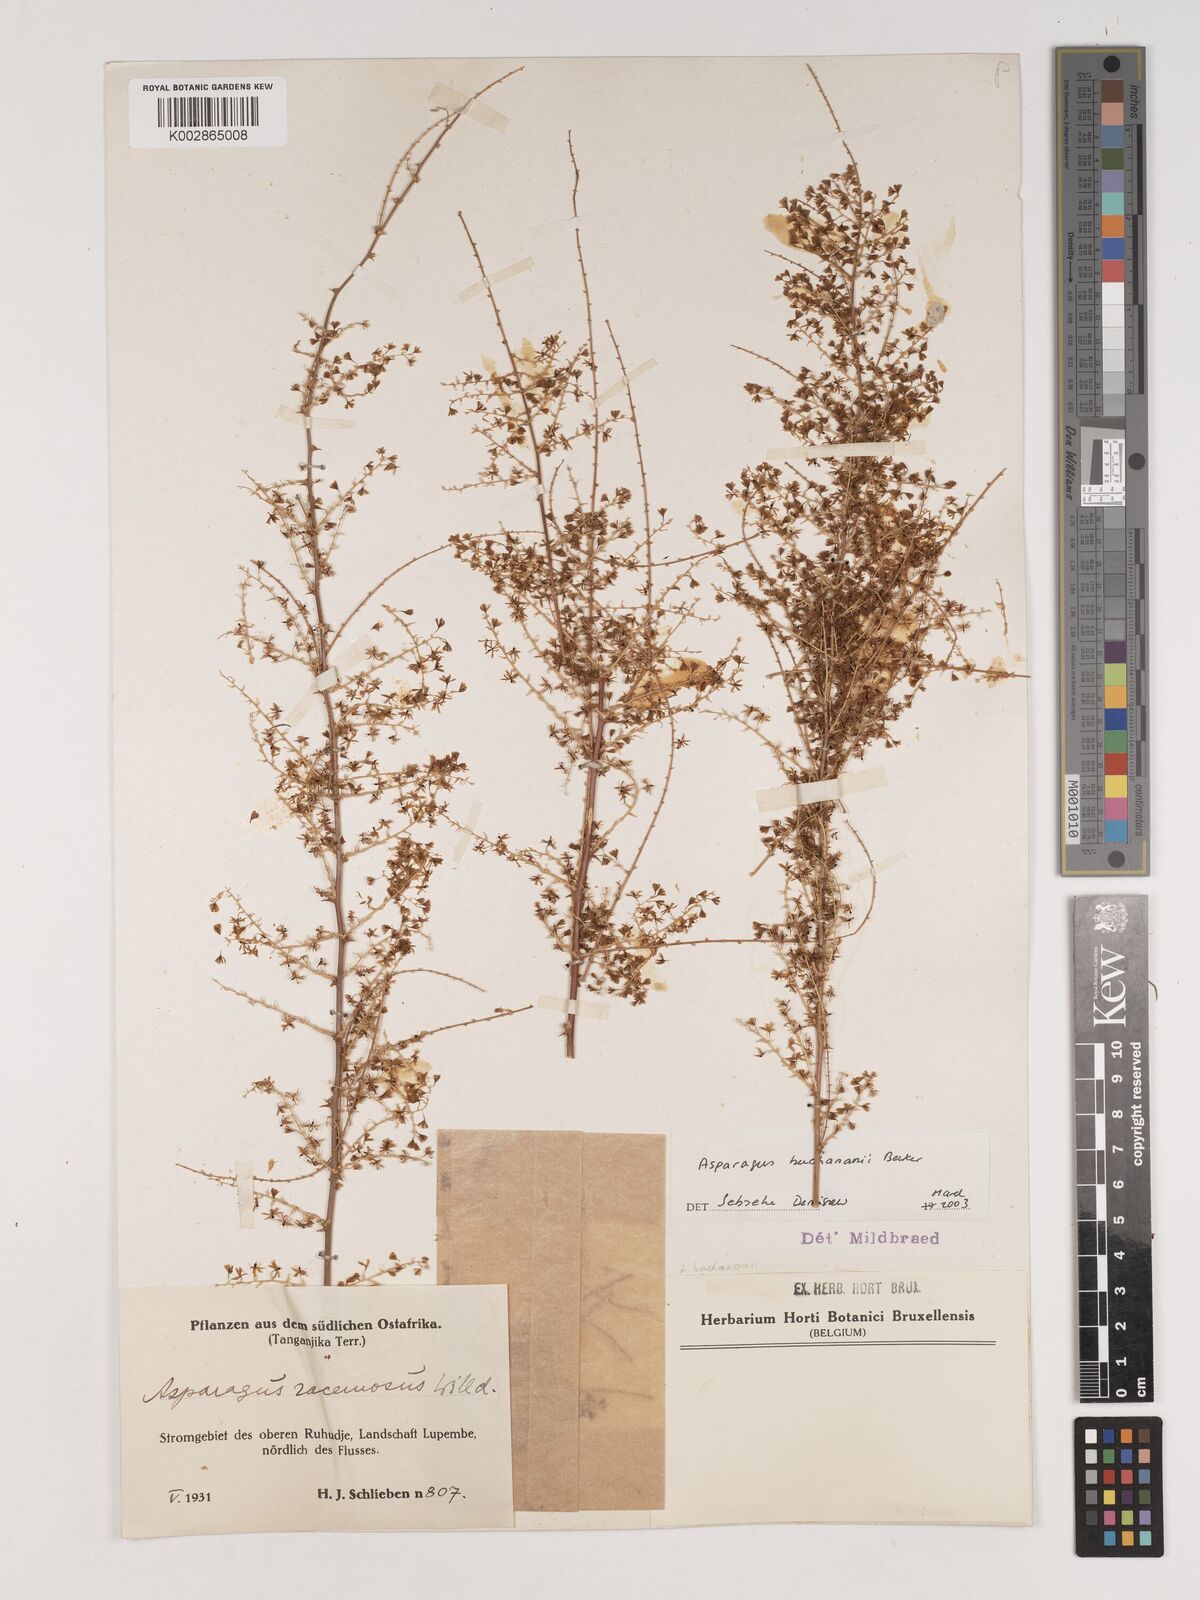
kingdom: Plantae
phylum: Tracheophyta
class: Liliopsida
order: Asparagales
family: Asparagaceae
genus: Asparagus
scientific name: Asparagus buchananii
